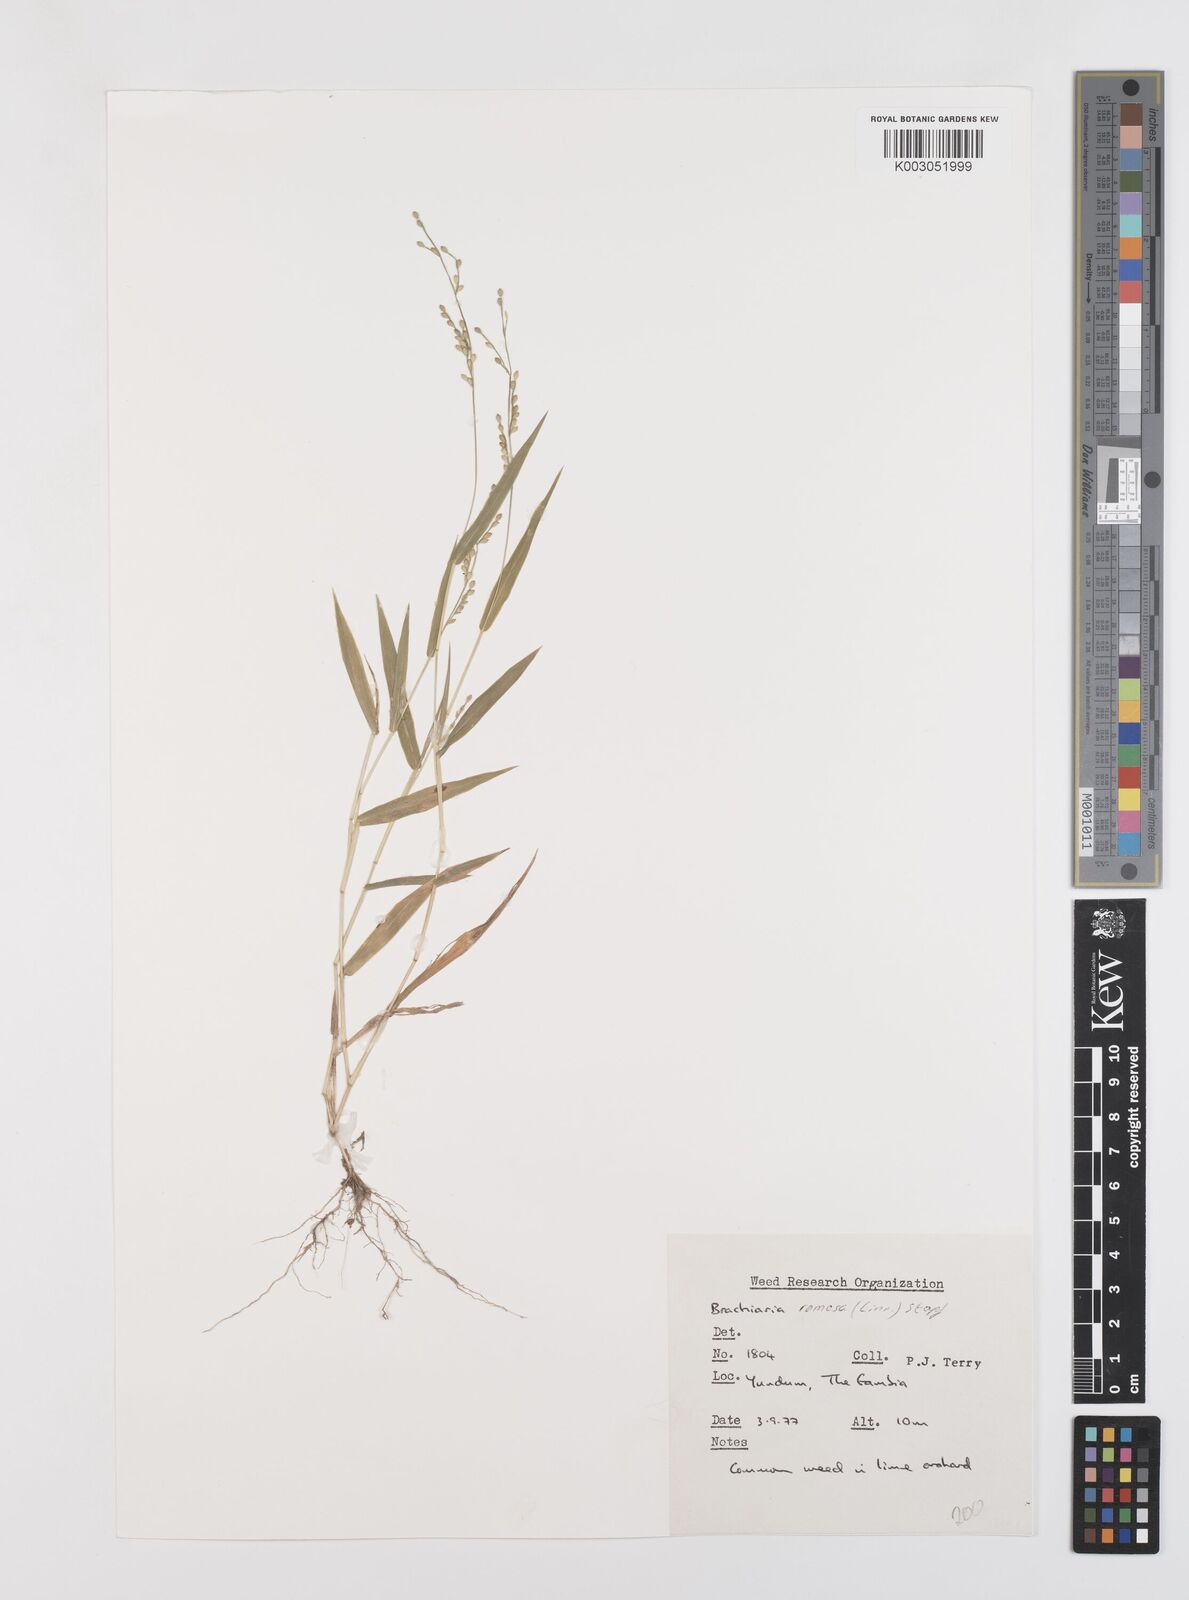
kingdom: Plantae
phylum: Tracheophyta
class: Liliopsida
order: Poales
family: Poaceae
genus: Urochloa
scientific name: Urochloa ramosa
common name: Browntop millet
